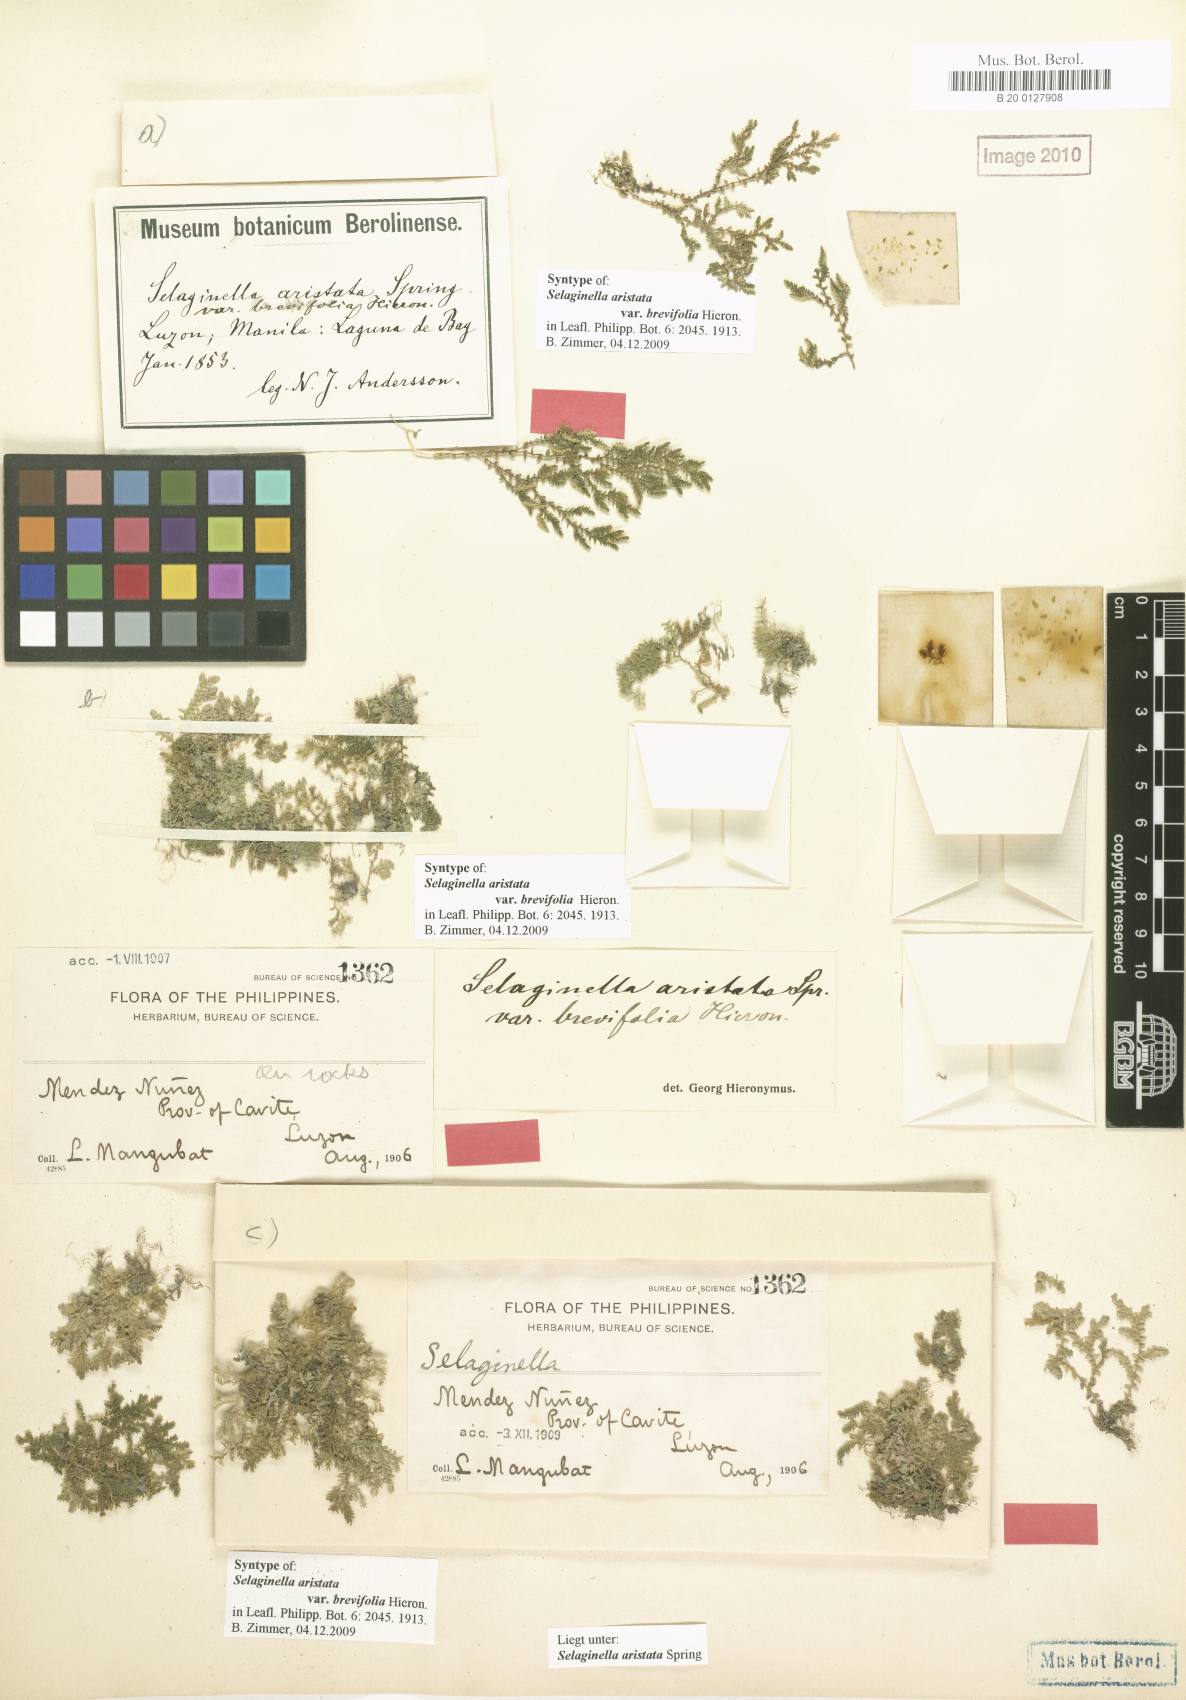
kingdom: Plantae
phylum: Tracheophyta
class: Lycopodiopsida
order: Selaginellales
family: Selaginellaceae
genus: Selaginella
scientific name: Selaginella aristata
